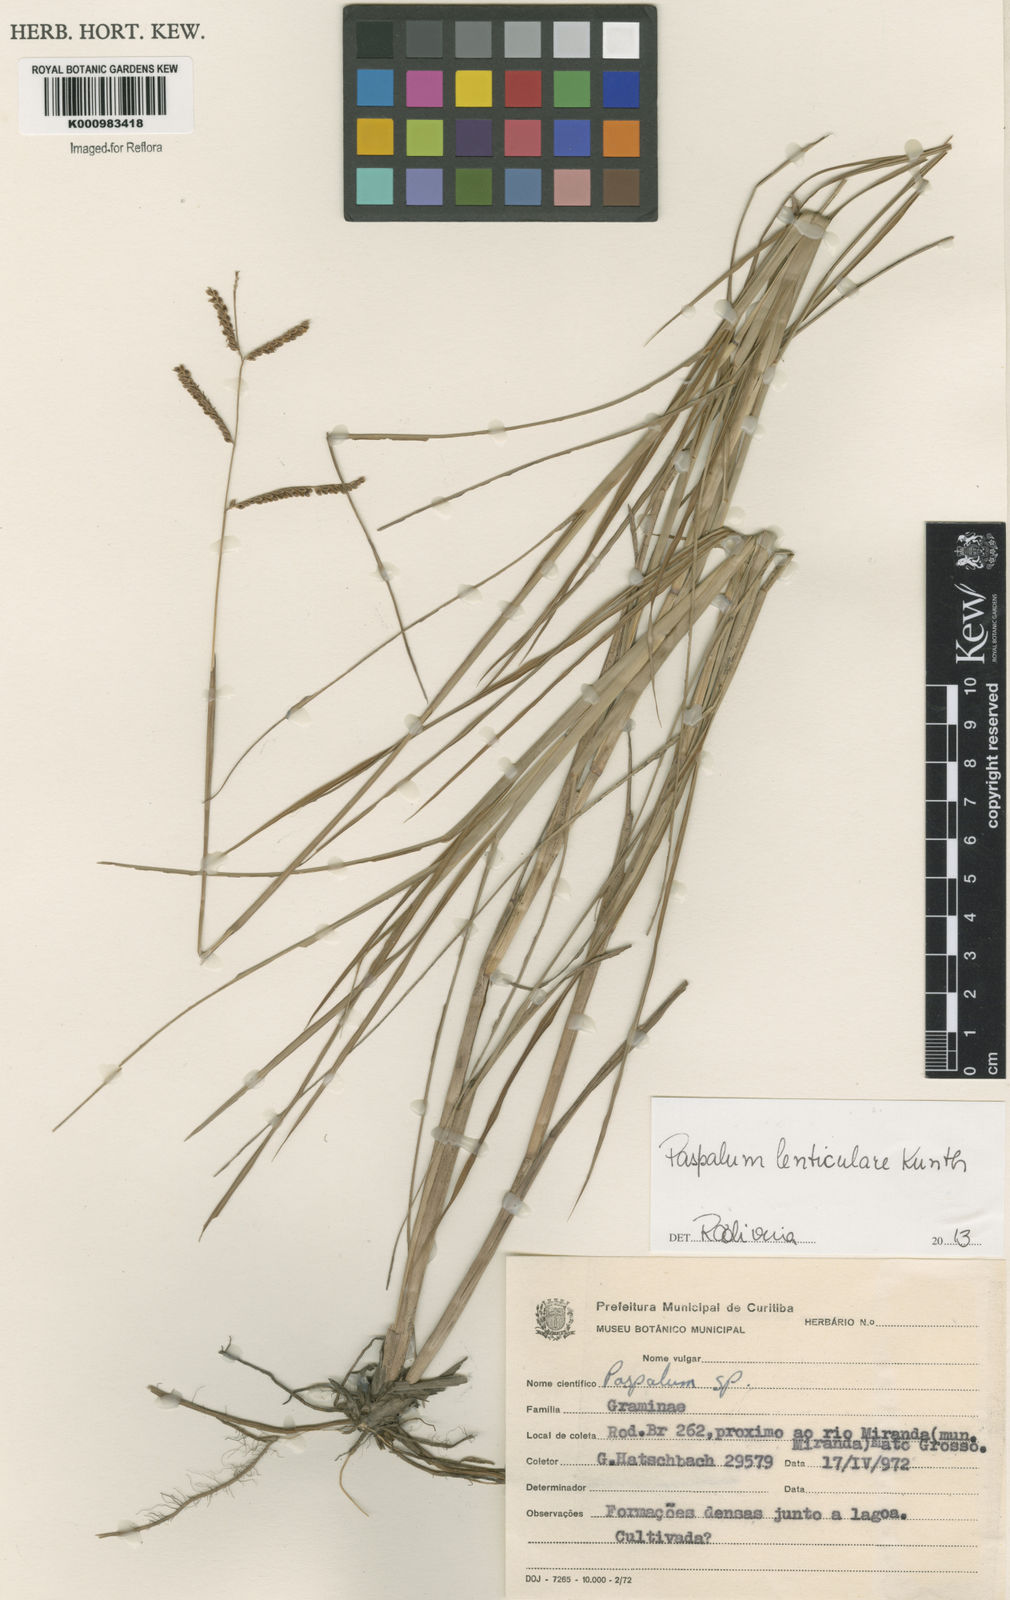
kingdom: Plantae
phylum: Tracheophyta
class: Liliopsida
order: Poales
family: Poaceae
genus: Paspalum
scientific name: Paspalum plicatulum
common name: Top paspalum
